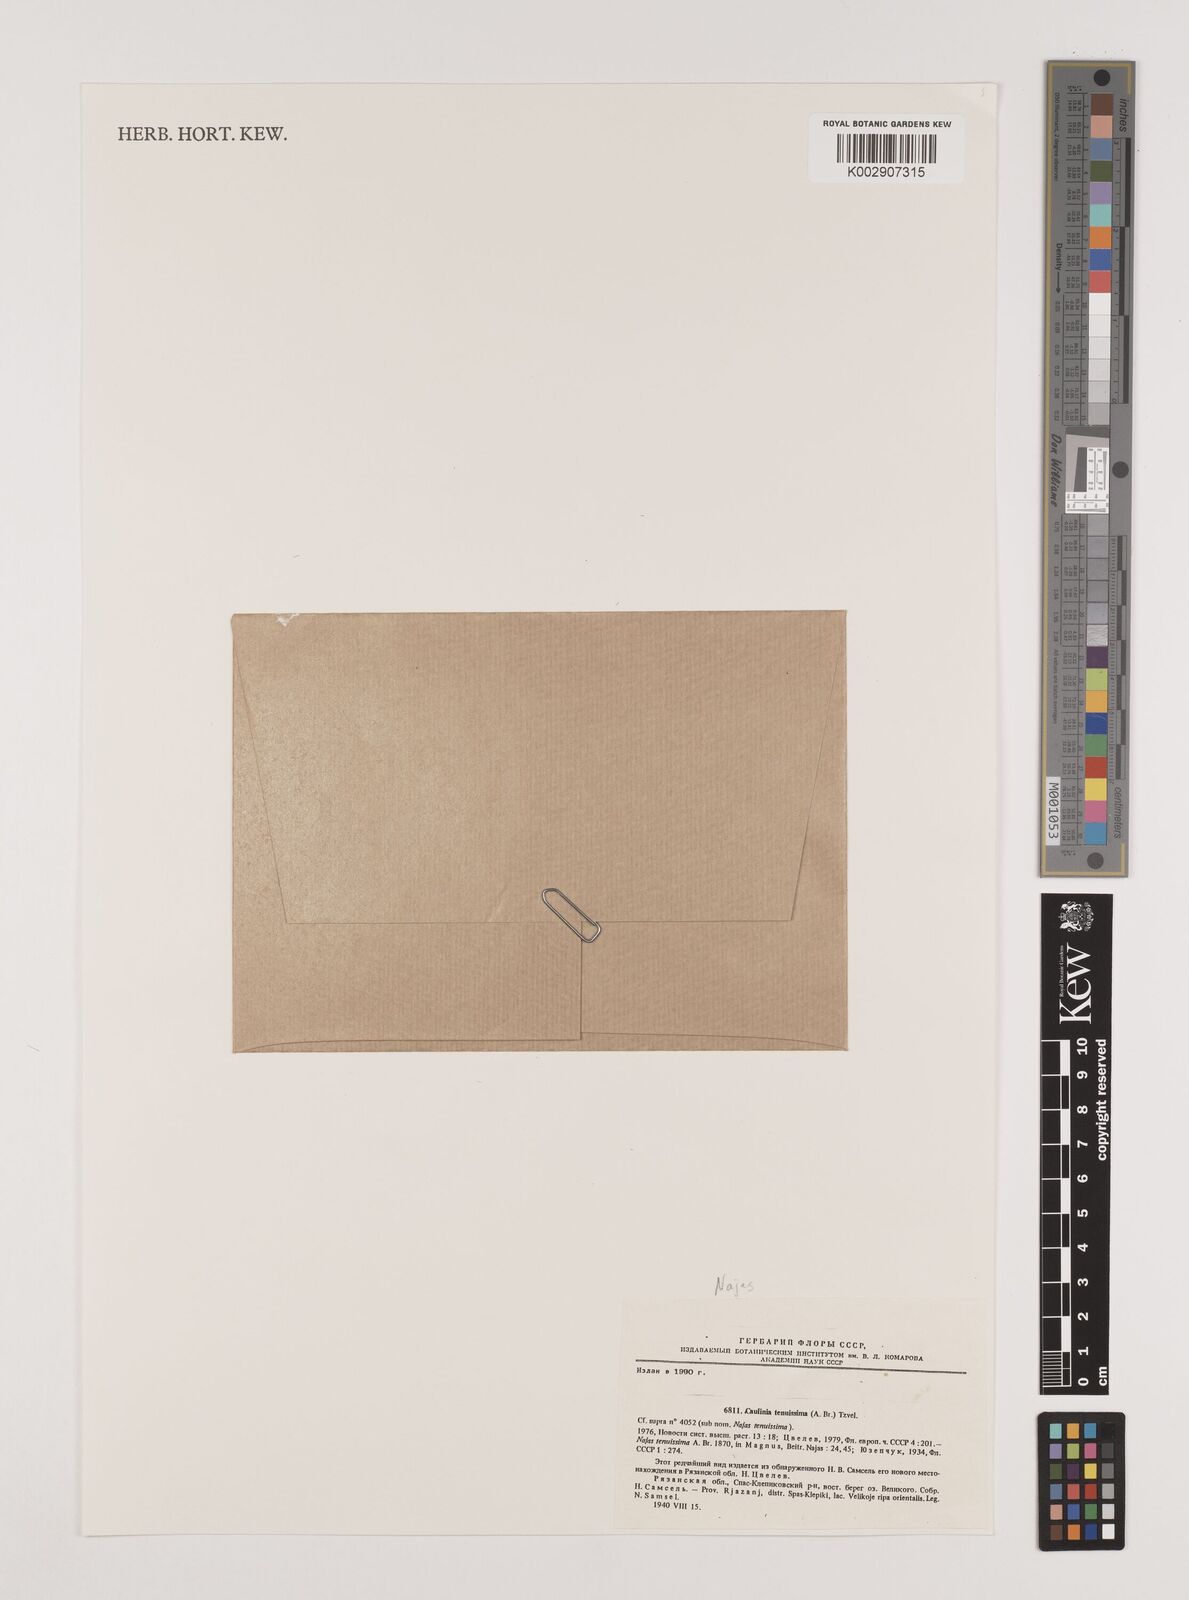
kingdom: Plantae
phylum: Tracheophyta
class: Liliopsida
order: Alismatales
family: Hydrocharitaceae
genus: Najas
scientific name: Najas tenuissima
